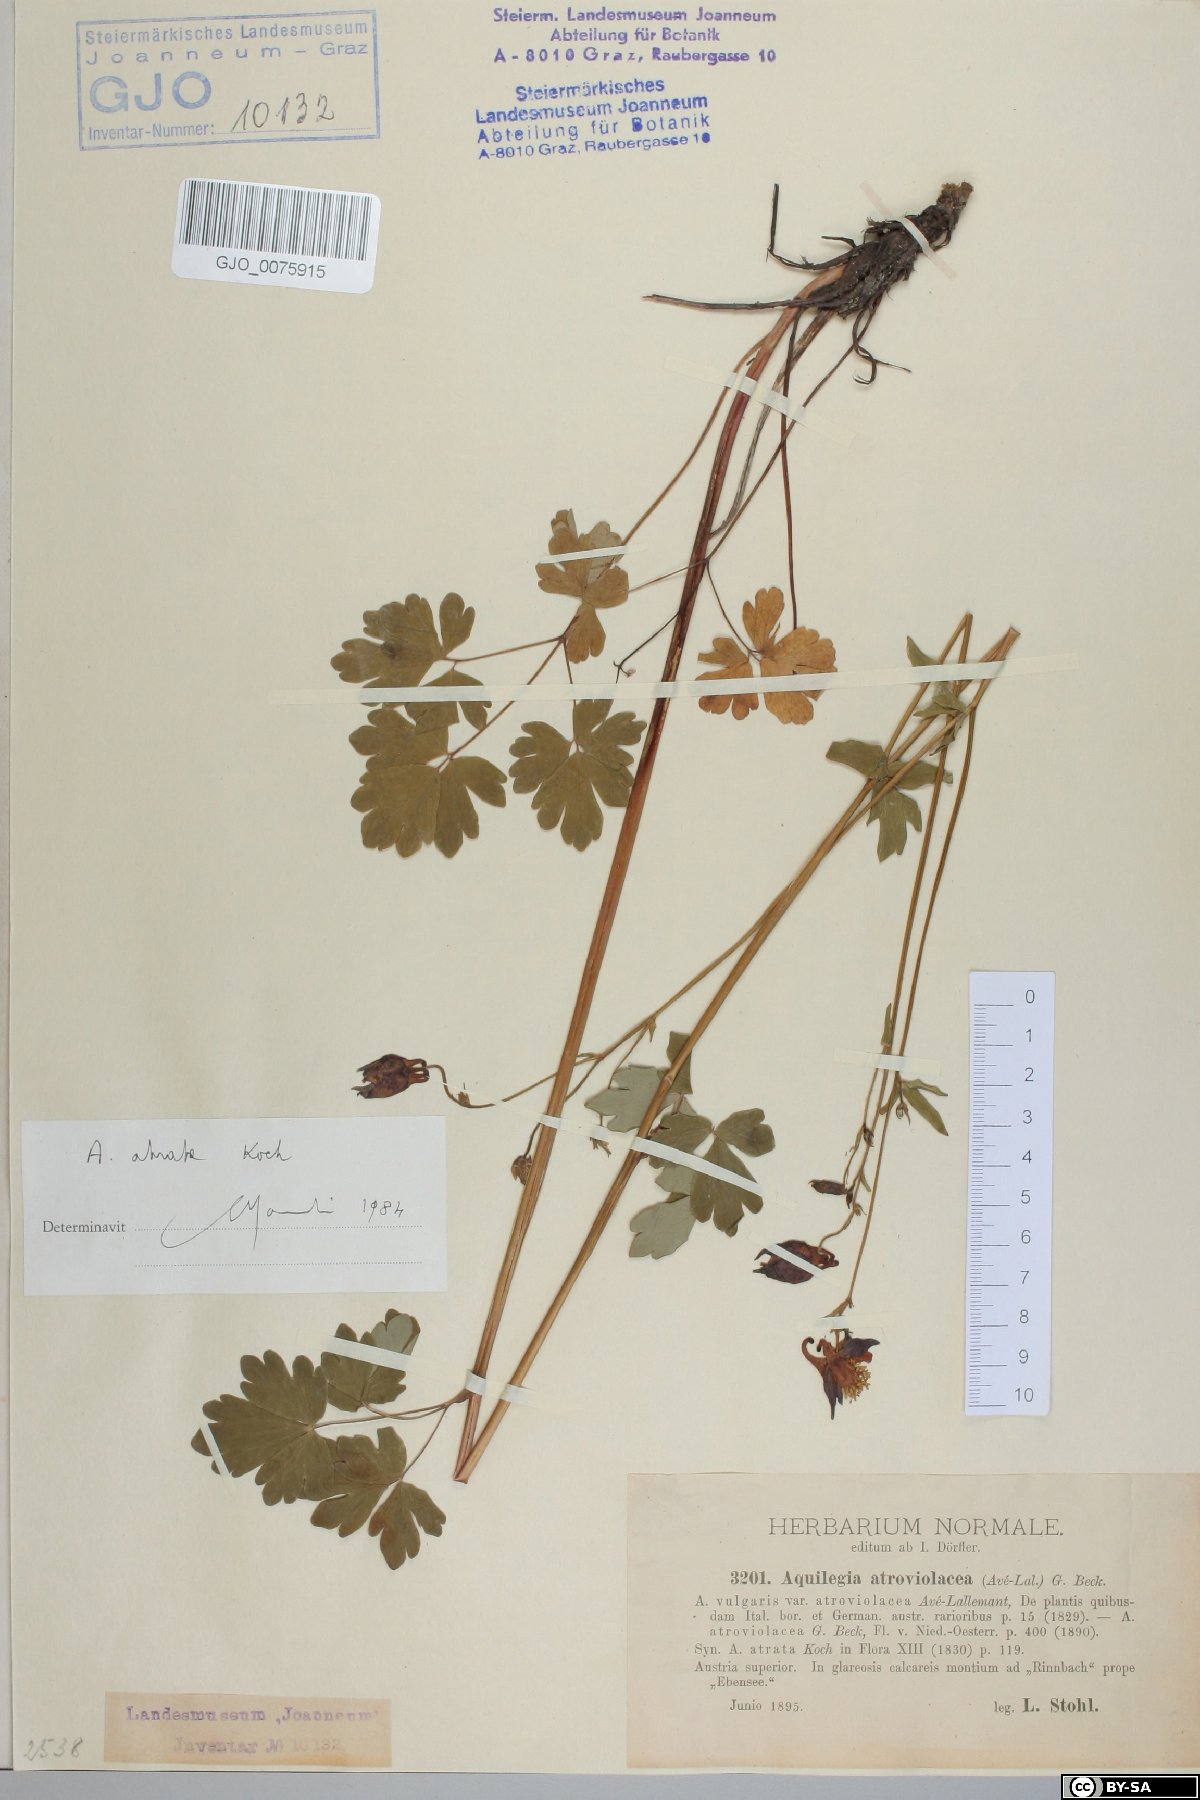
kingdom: Plantae
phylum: Tracheophyta
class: Magnoliopsida
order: Ranunculales
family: Ranunculaceae
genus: Aquilegia
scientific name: Aquilegia atrata
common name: Dark columbine
